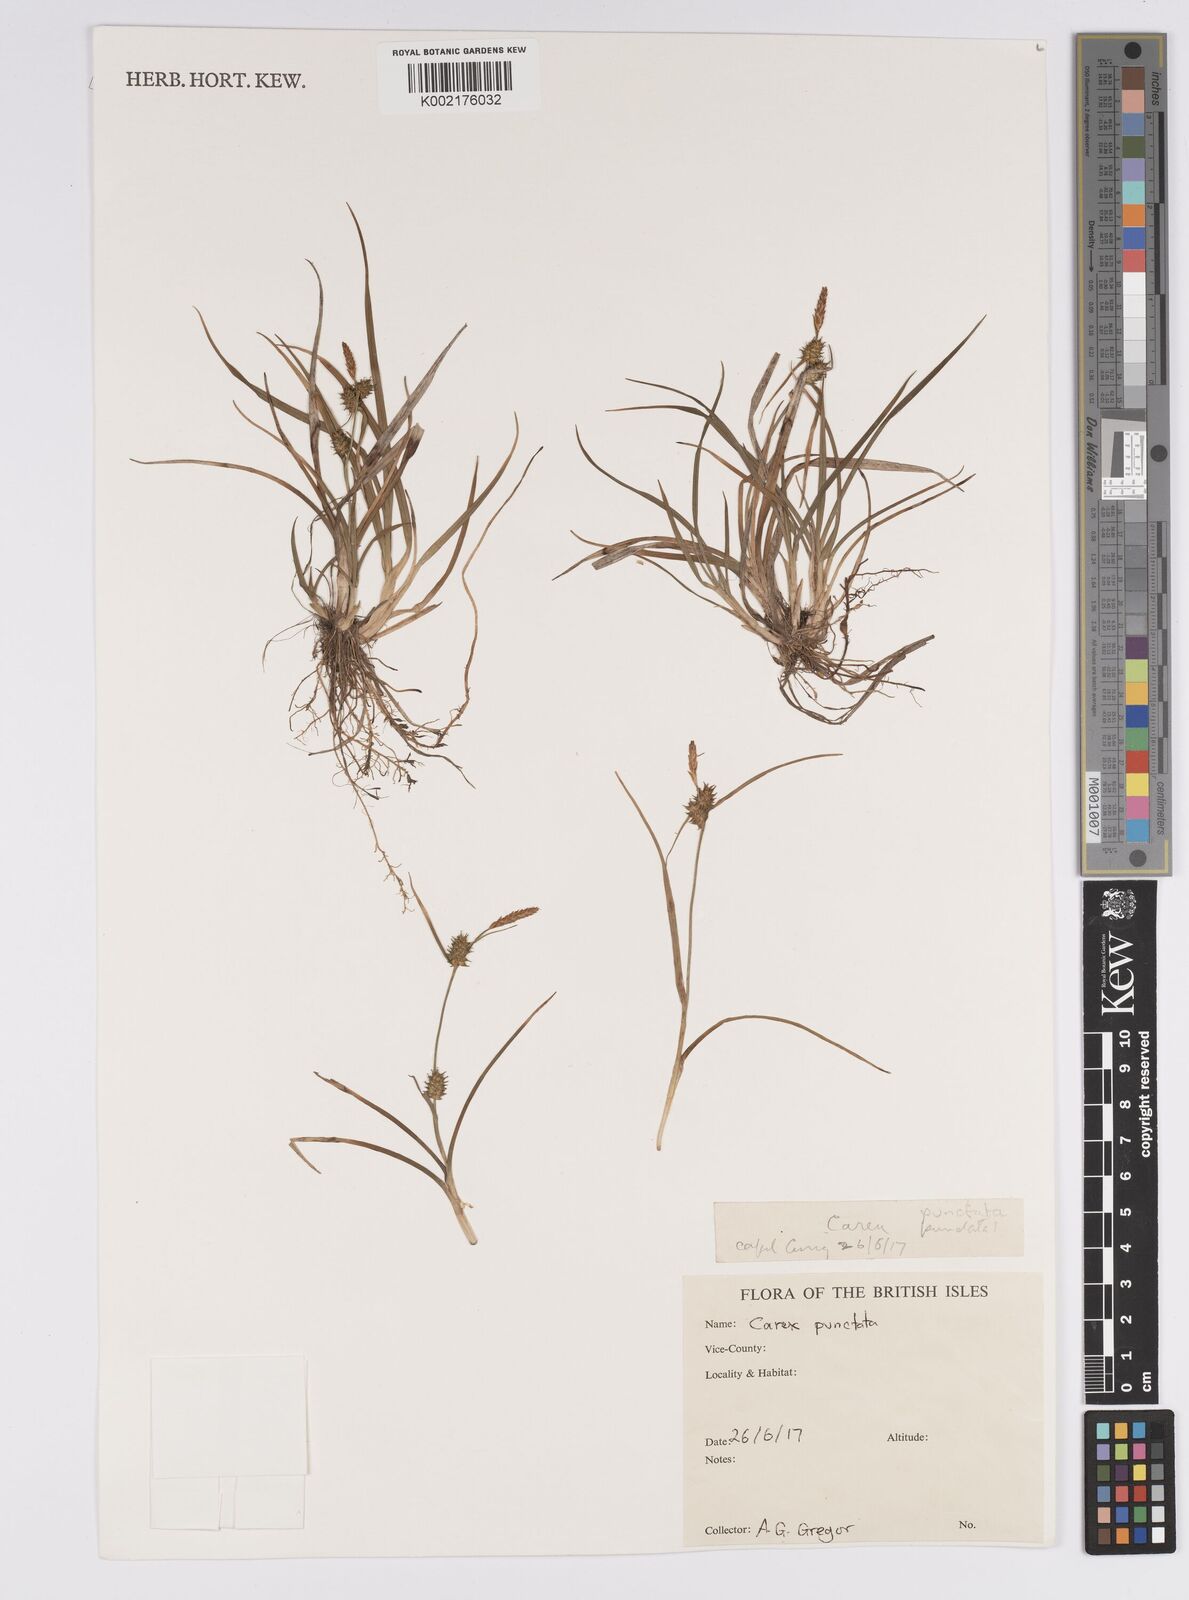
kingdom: Plantae
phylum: Tracheophyta
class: Liliopsida
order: Poales
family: Cyperaceae
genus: Carex
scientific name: Carex punctata
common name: Dotted sedge
